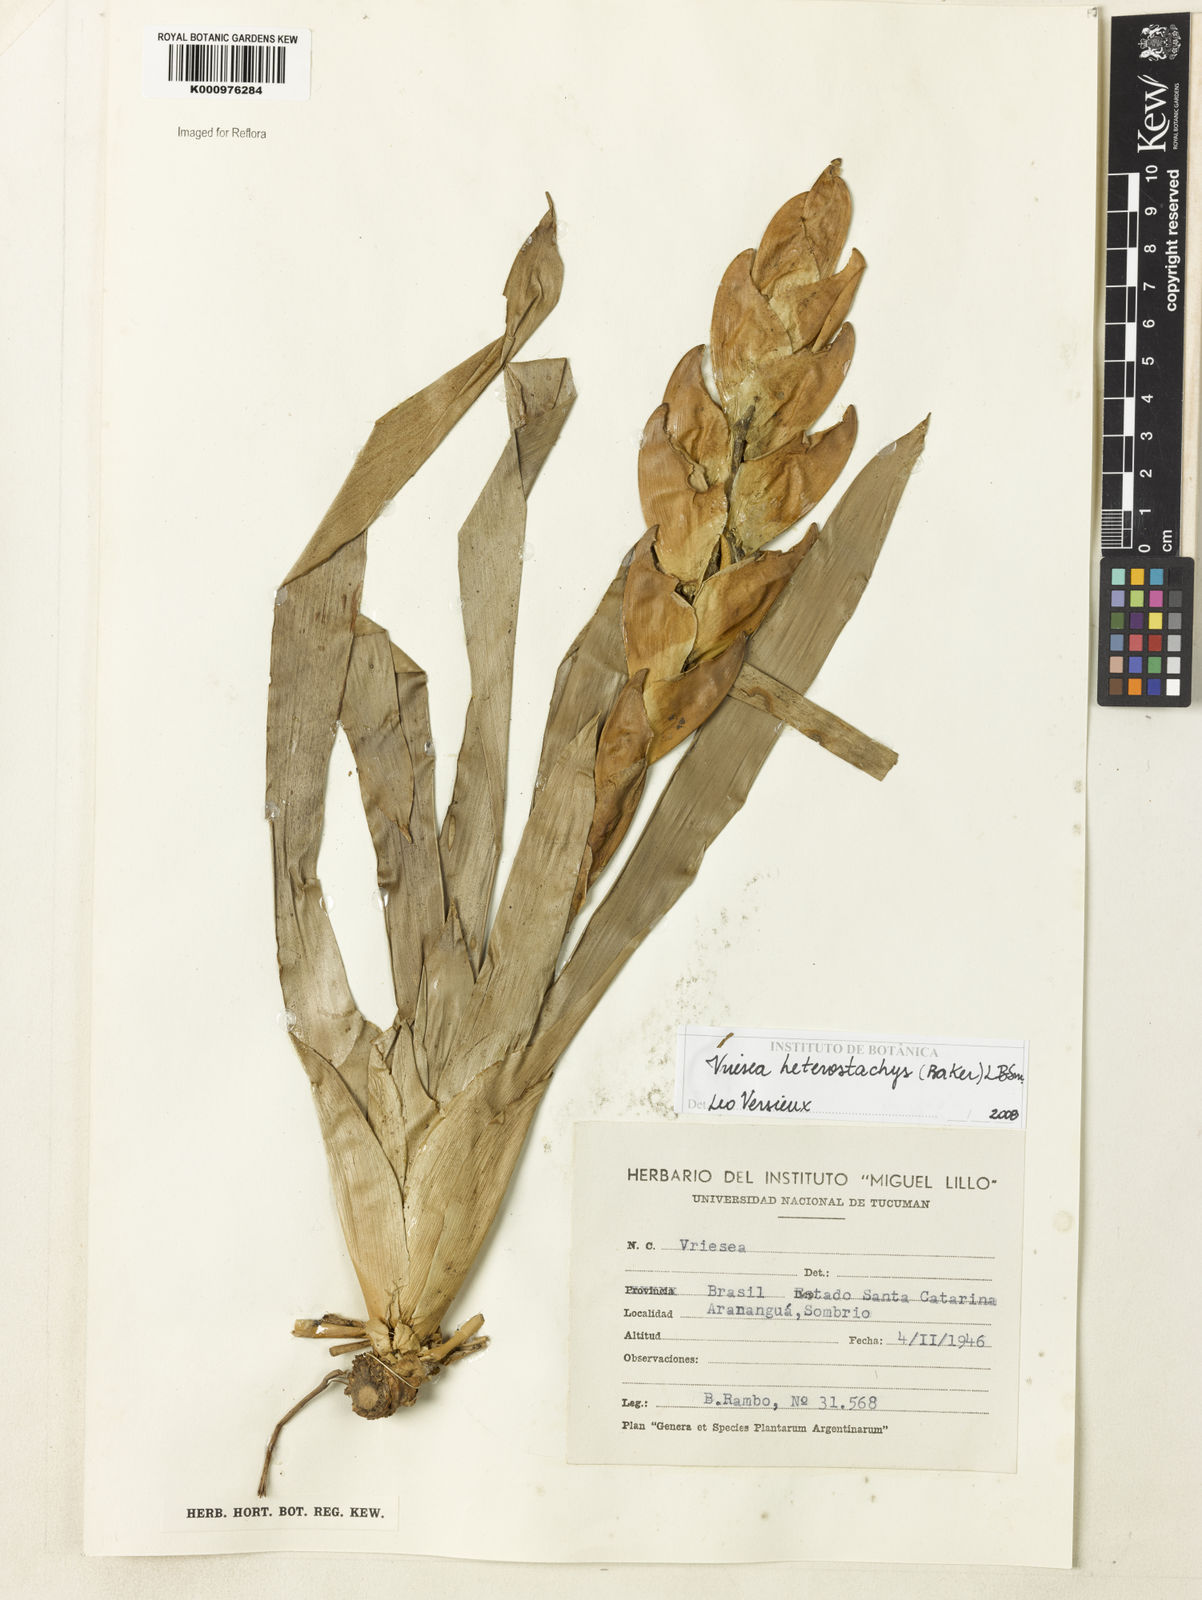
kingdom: Plantae
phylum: Tracheophyta
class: Liliopsida
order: Poales
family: Bromeliaceae
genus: Vriesea
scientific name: Vriesea heterostachys
